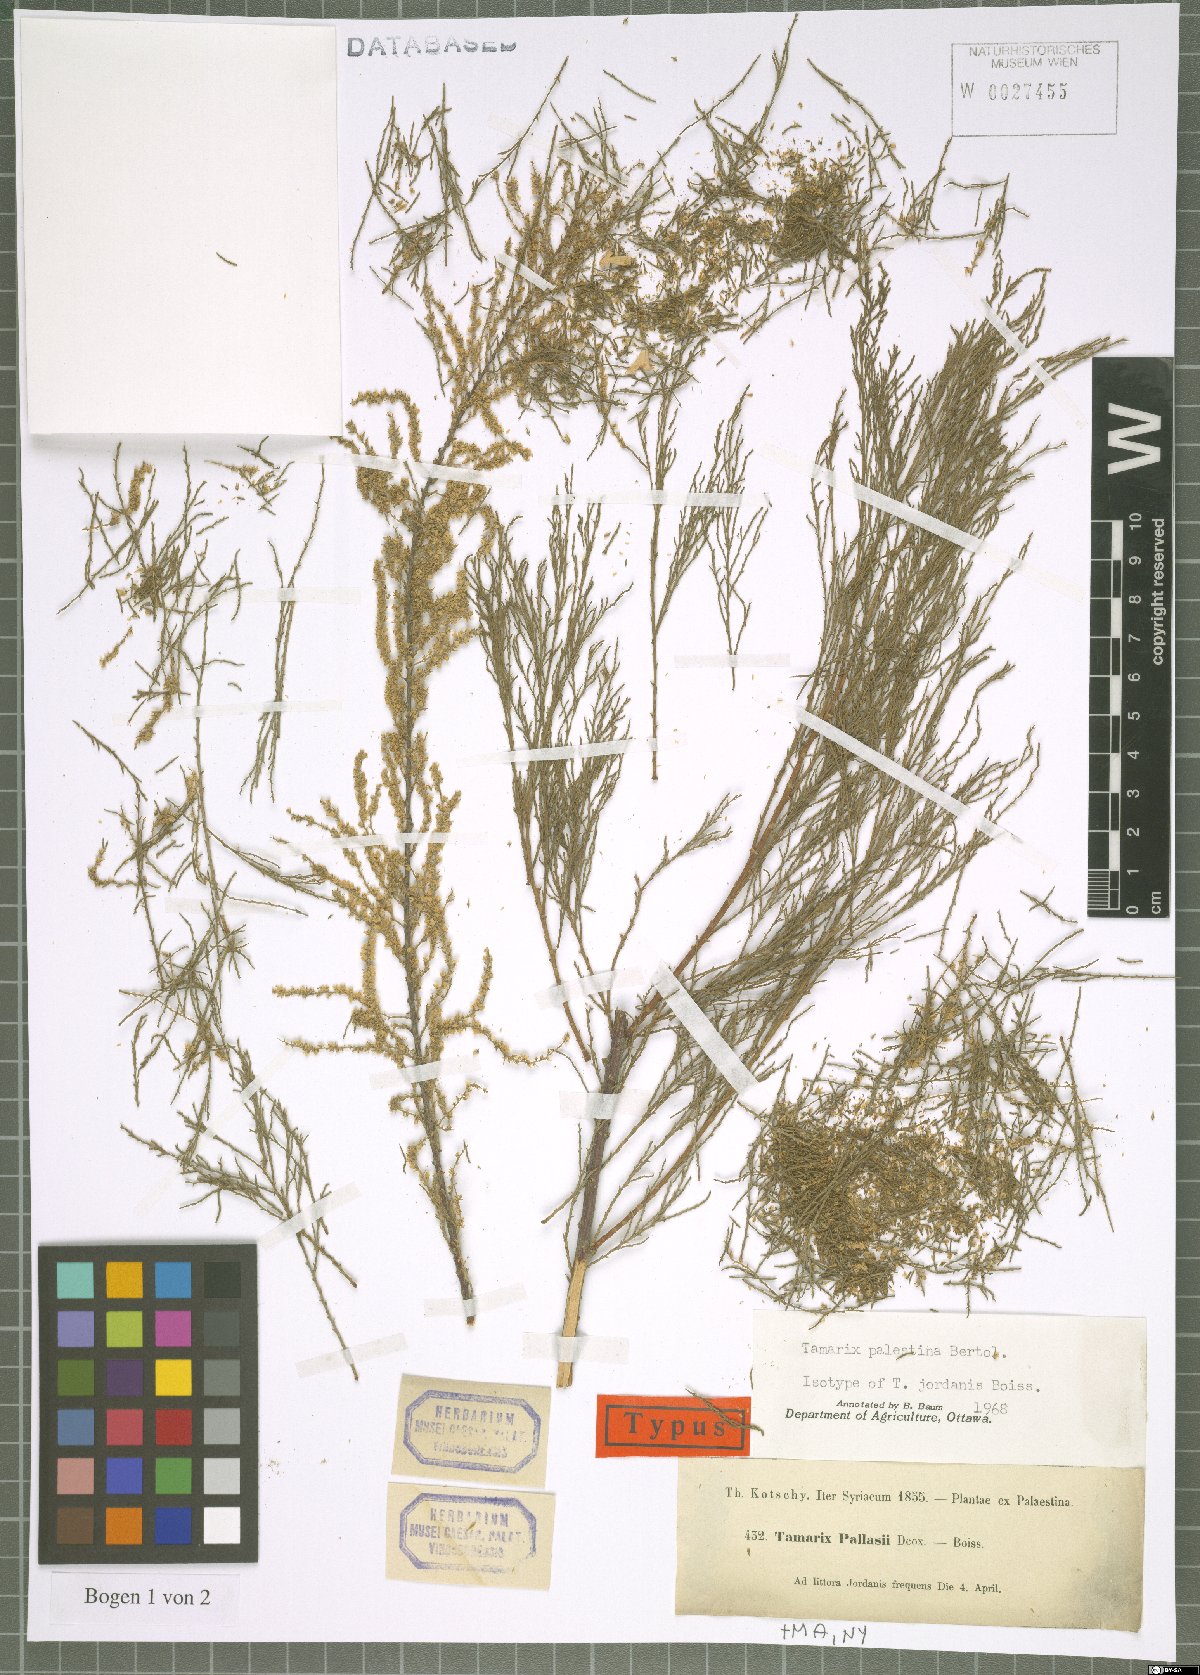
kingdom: Plantae
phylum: Tracheophyta
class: Magnoliopsida
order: Caryophyllales
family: Tamaricaceae
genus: Tamarix
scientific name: Tamarix palaestina
